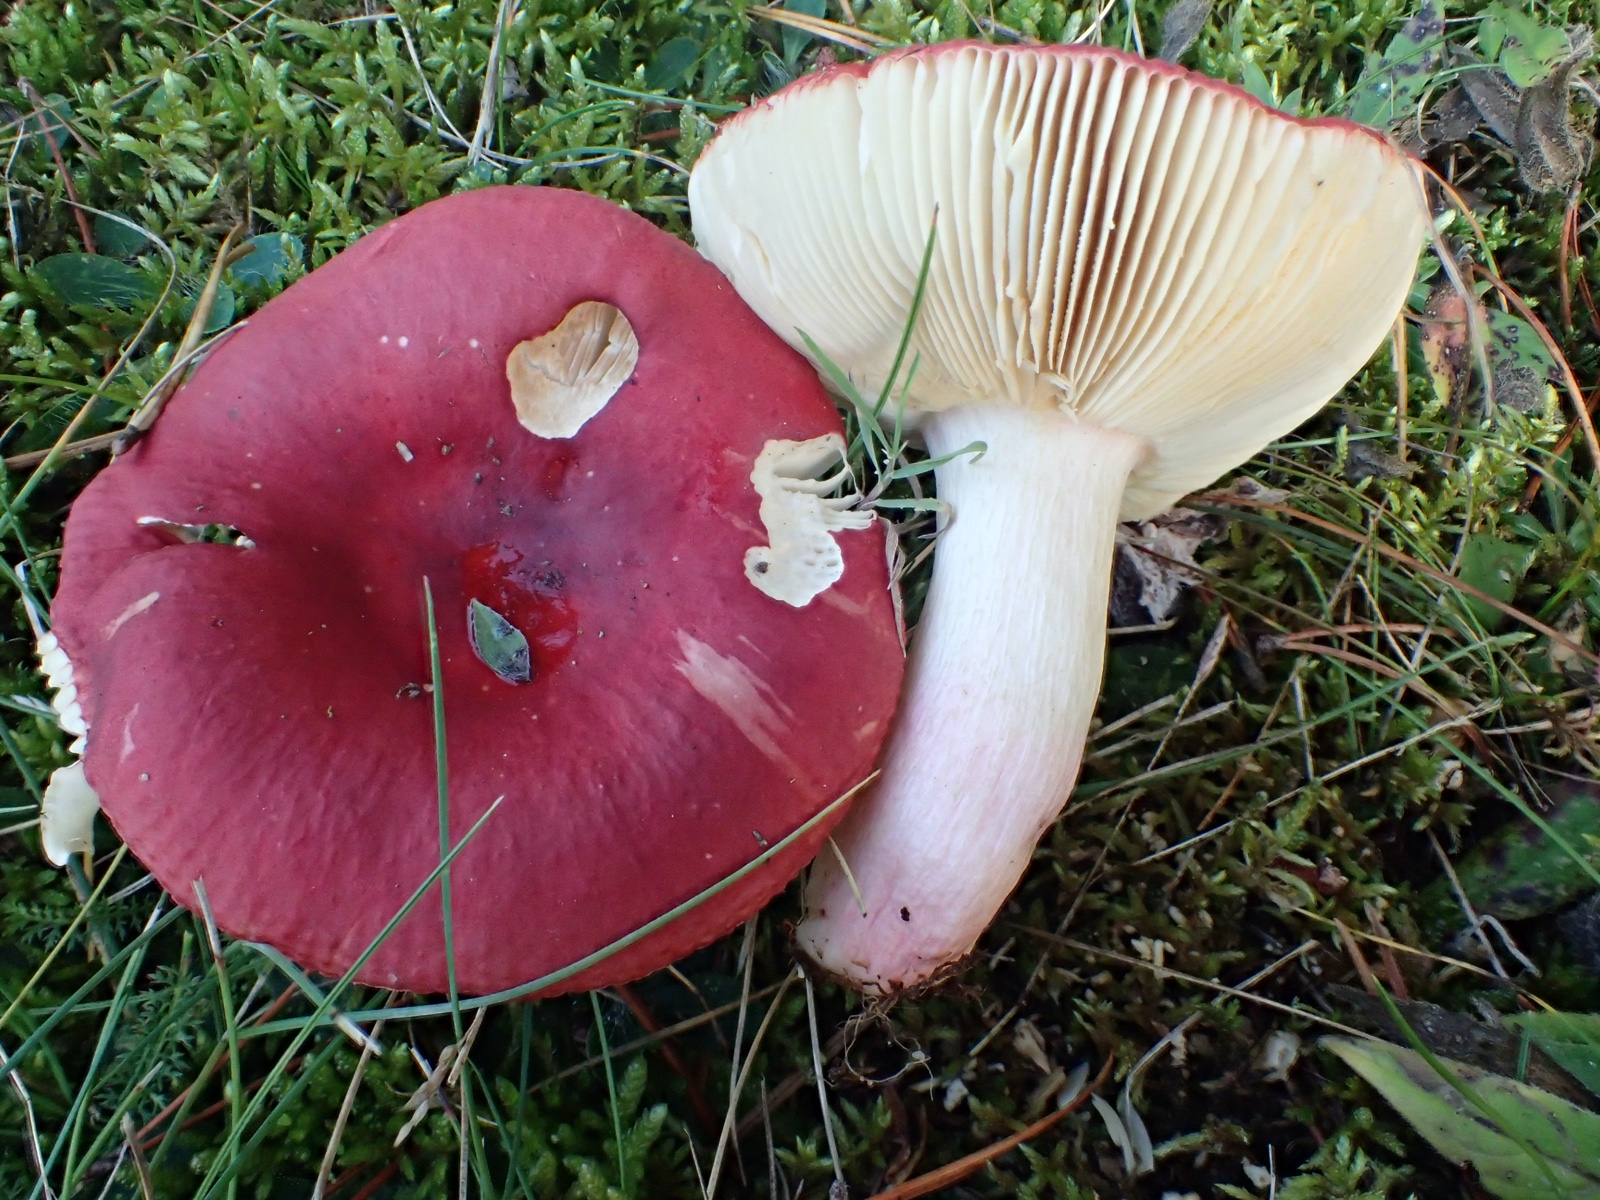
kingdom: Fungi
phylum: Basidiomycota
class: Agaricomycetes
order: Russulales
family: Russulaceae
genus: Russula
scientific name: Russula paludosa
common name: prægtig skørhat
